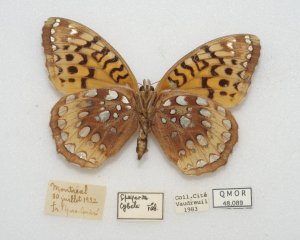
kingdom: Animalia
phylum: Arthropoda
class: Insecta
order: Lepidoptera
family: Nymphalidae
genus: Speyeria
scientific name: Speyeria cybele
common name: Great Spangled Fritillary
